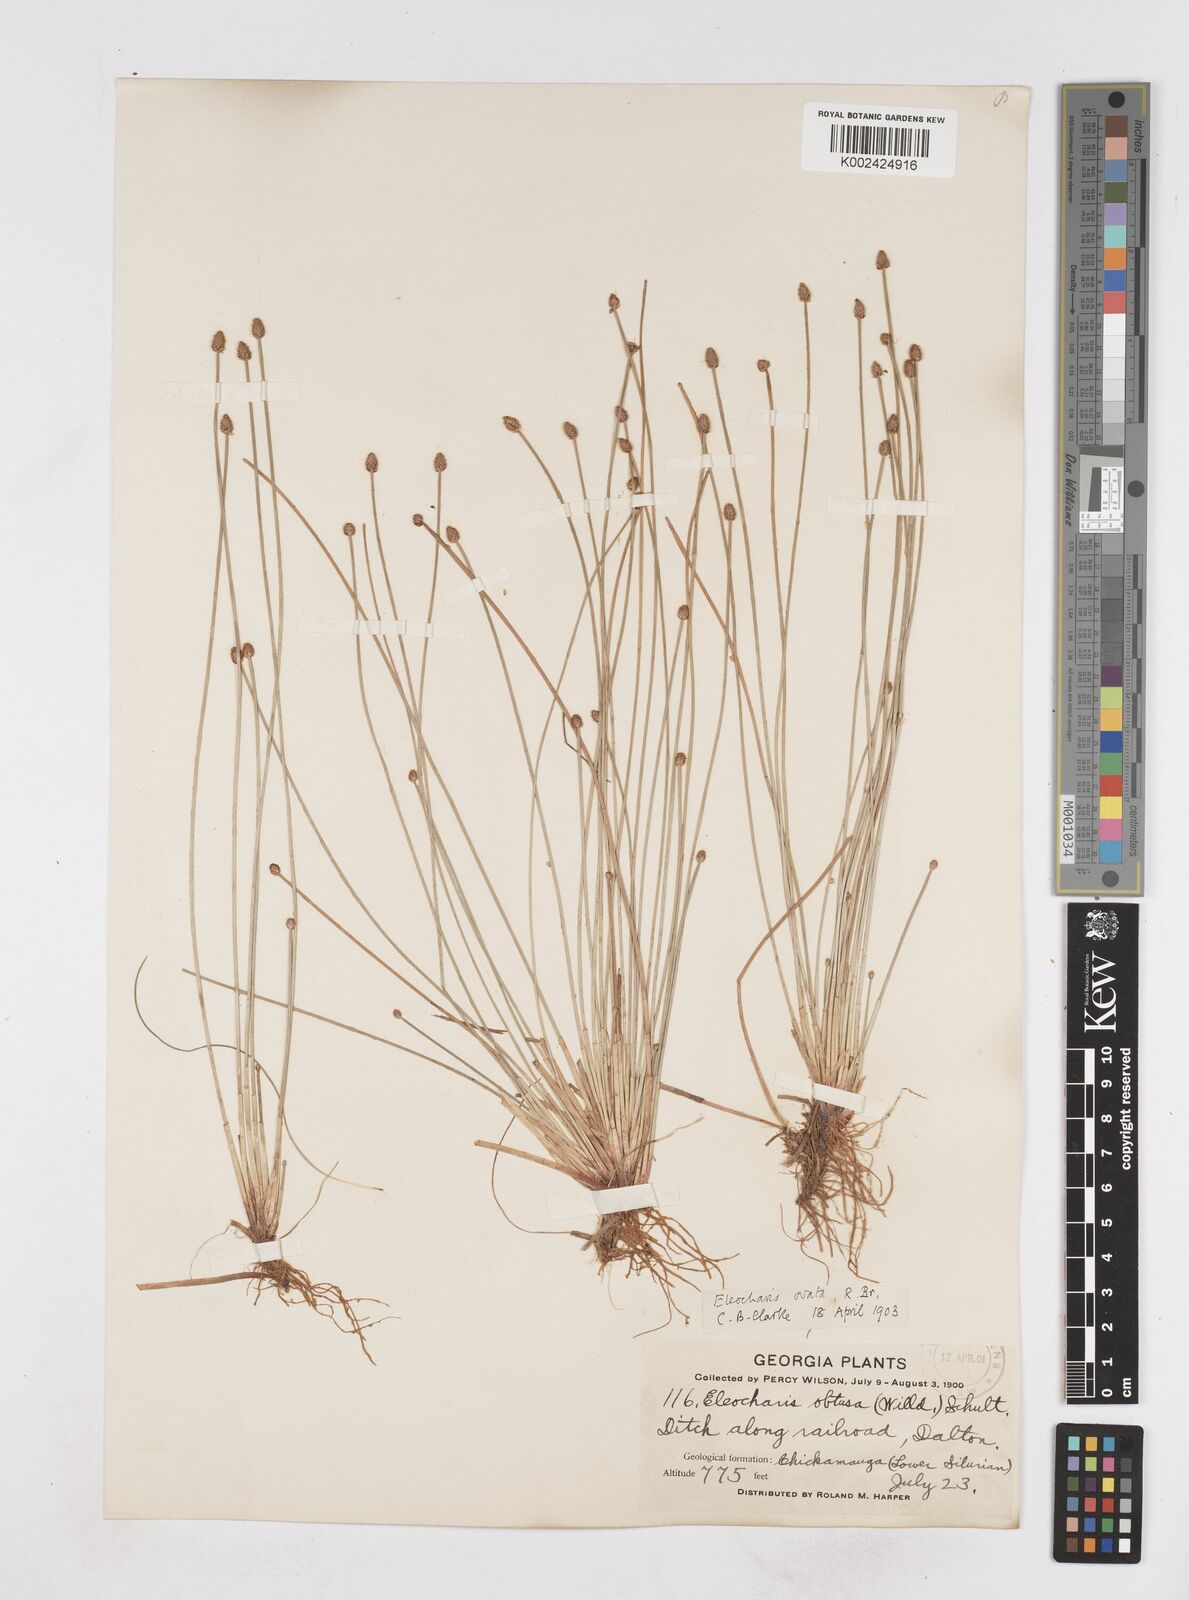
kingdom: Plantae
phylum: Tracheophyta
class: Liliopsida
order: Poales
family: Cyperaceae
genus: Eleocharis
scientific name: Eleocharis ovata
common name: Oval spike-rush
